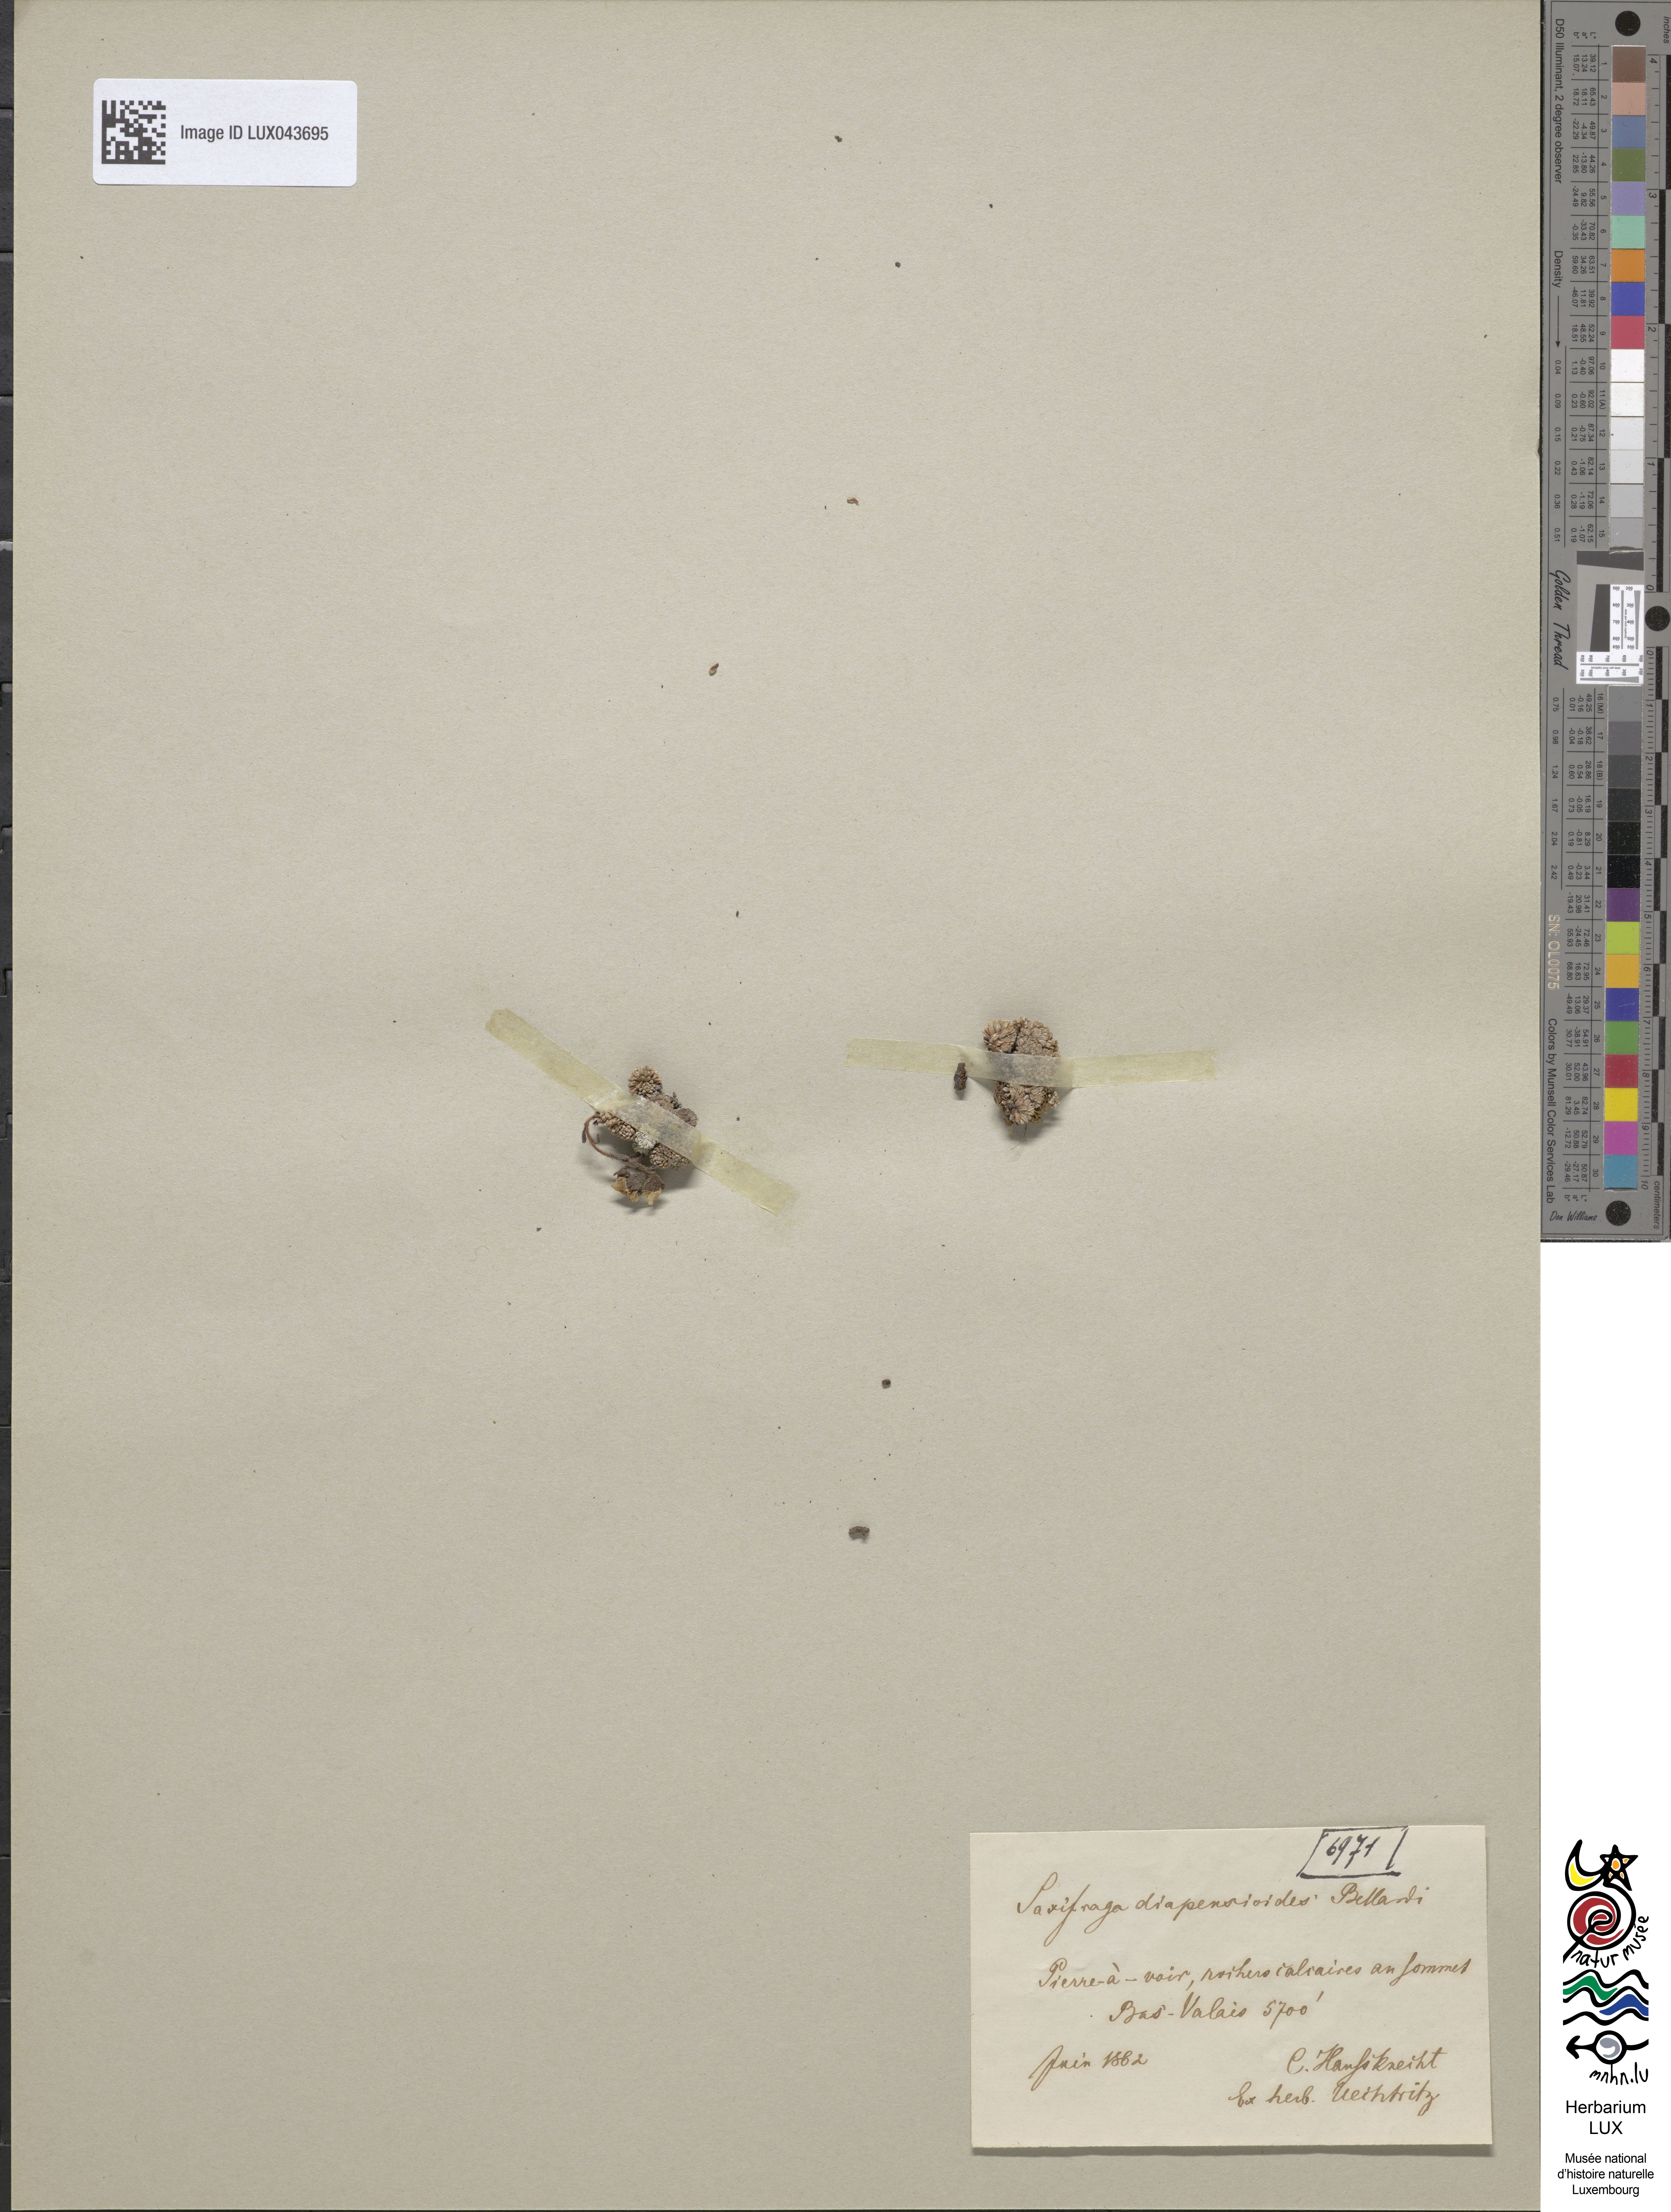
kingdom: Plantae
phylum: Tracheophyta
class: Magnoliopsida
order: Saxifragales
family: Saxifragaceae
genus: Saxifraga
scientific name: Saxifraga diapensioides
